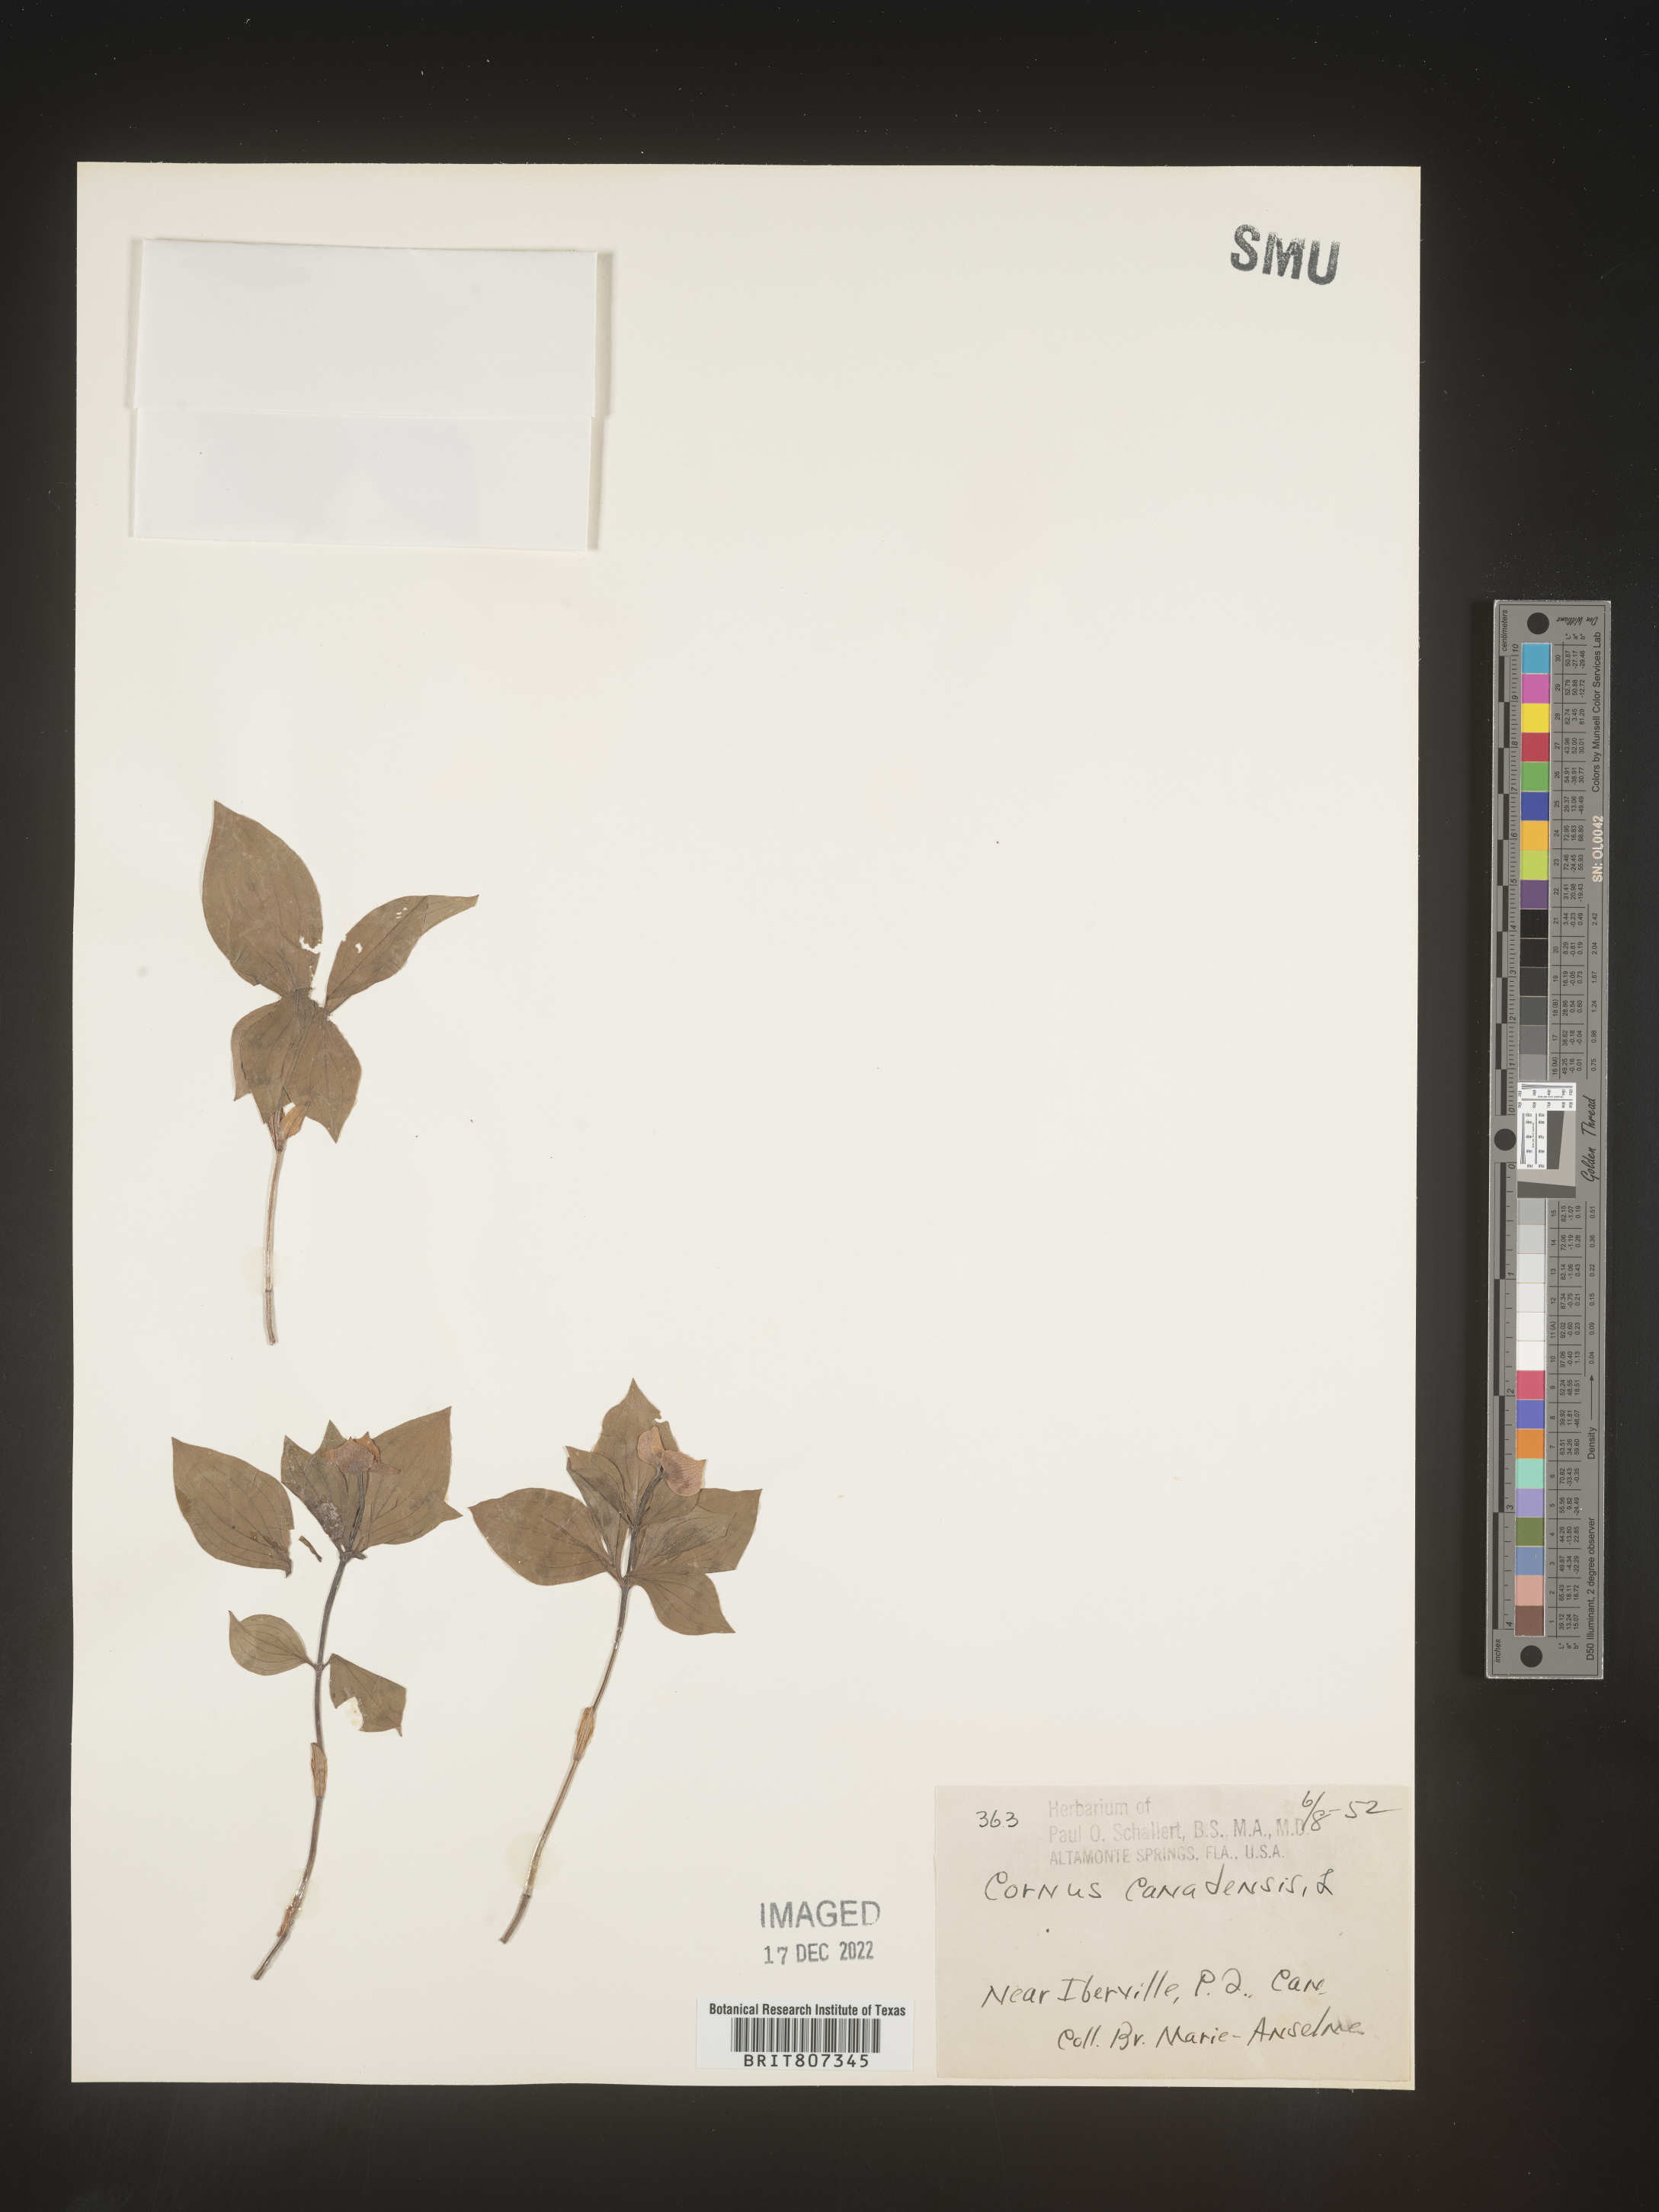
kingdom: Plantae
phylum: Tracheophyta
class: Magnoliopsida
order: Cornales
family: Cornaceae
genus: Cornus
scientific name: Cornus canadensis
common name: Creeping dogwood
